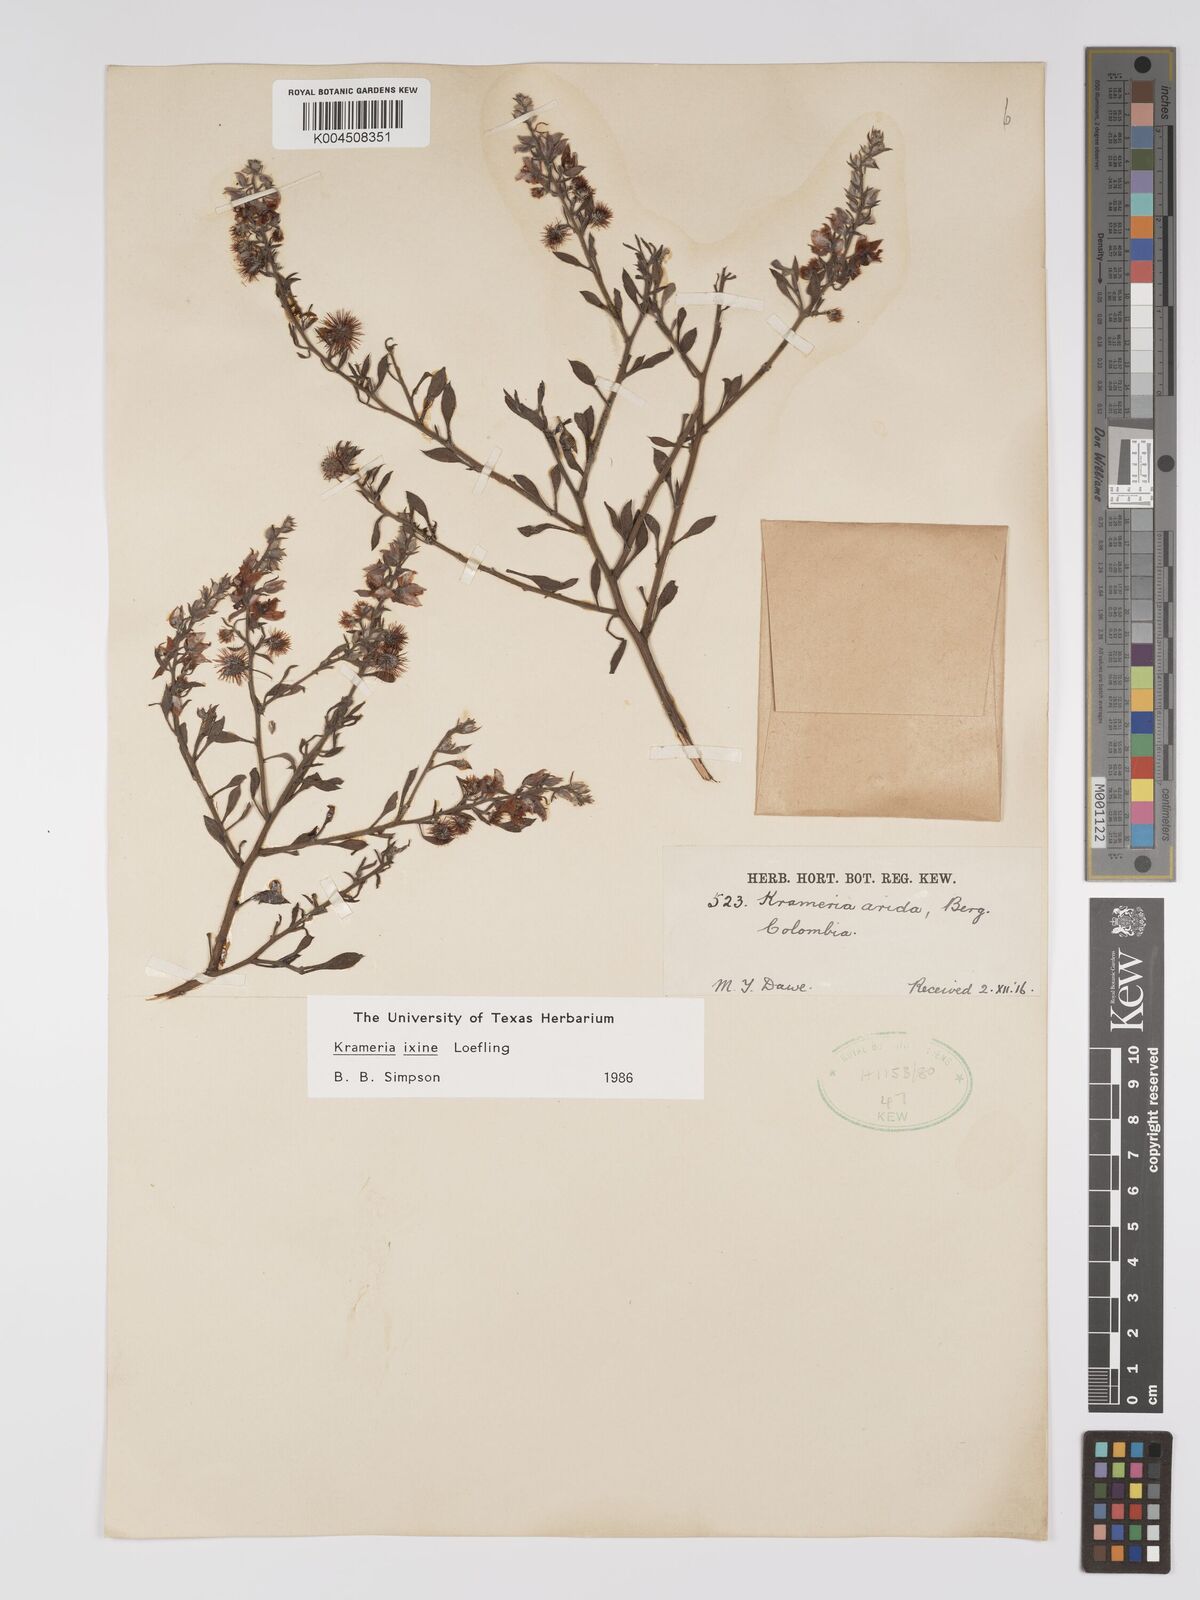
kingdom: Plantae
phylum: Tracheophyta
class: Magnoliopsida
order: Zygophyllales
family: Krameriaceae
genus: Krameria
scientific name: Krameria ixine
